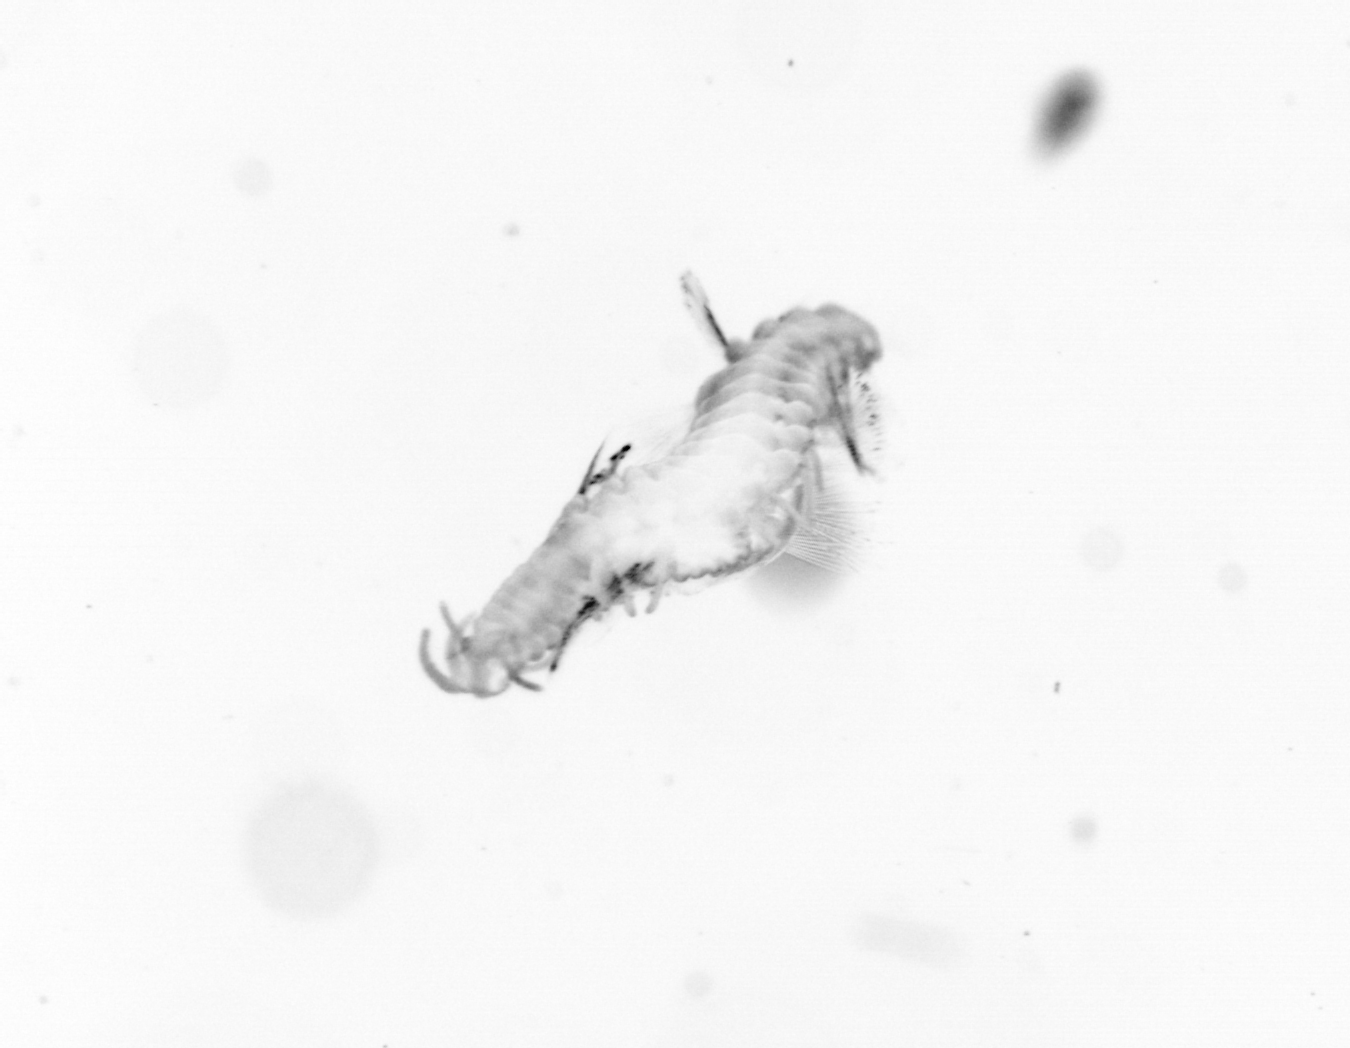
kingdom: Animalia
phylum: Annelida
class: Polychaeta
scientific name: Polychaeta
